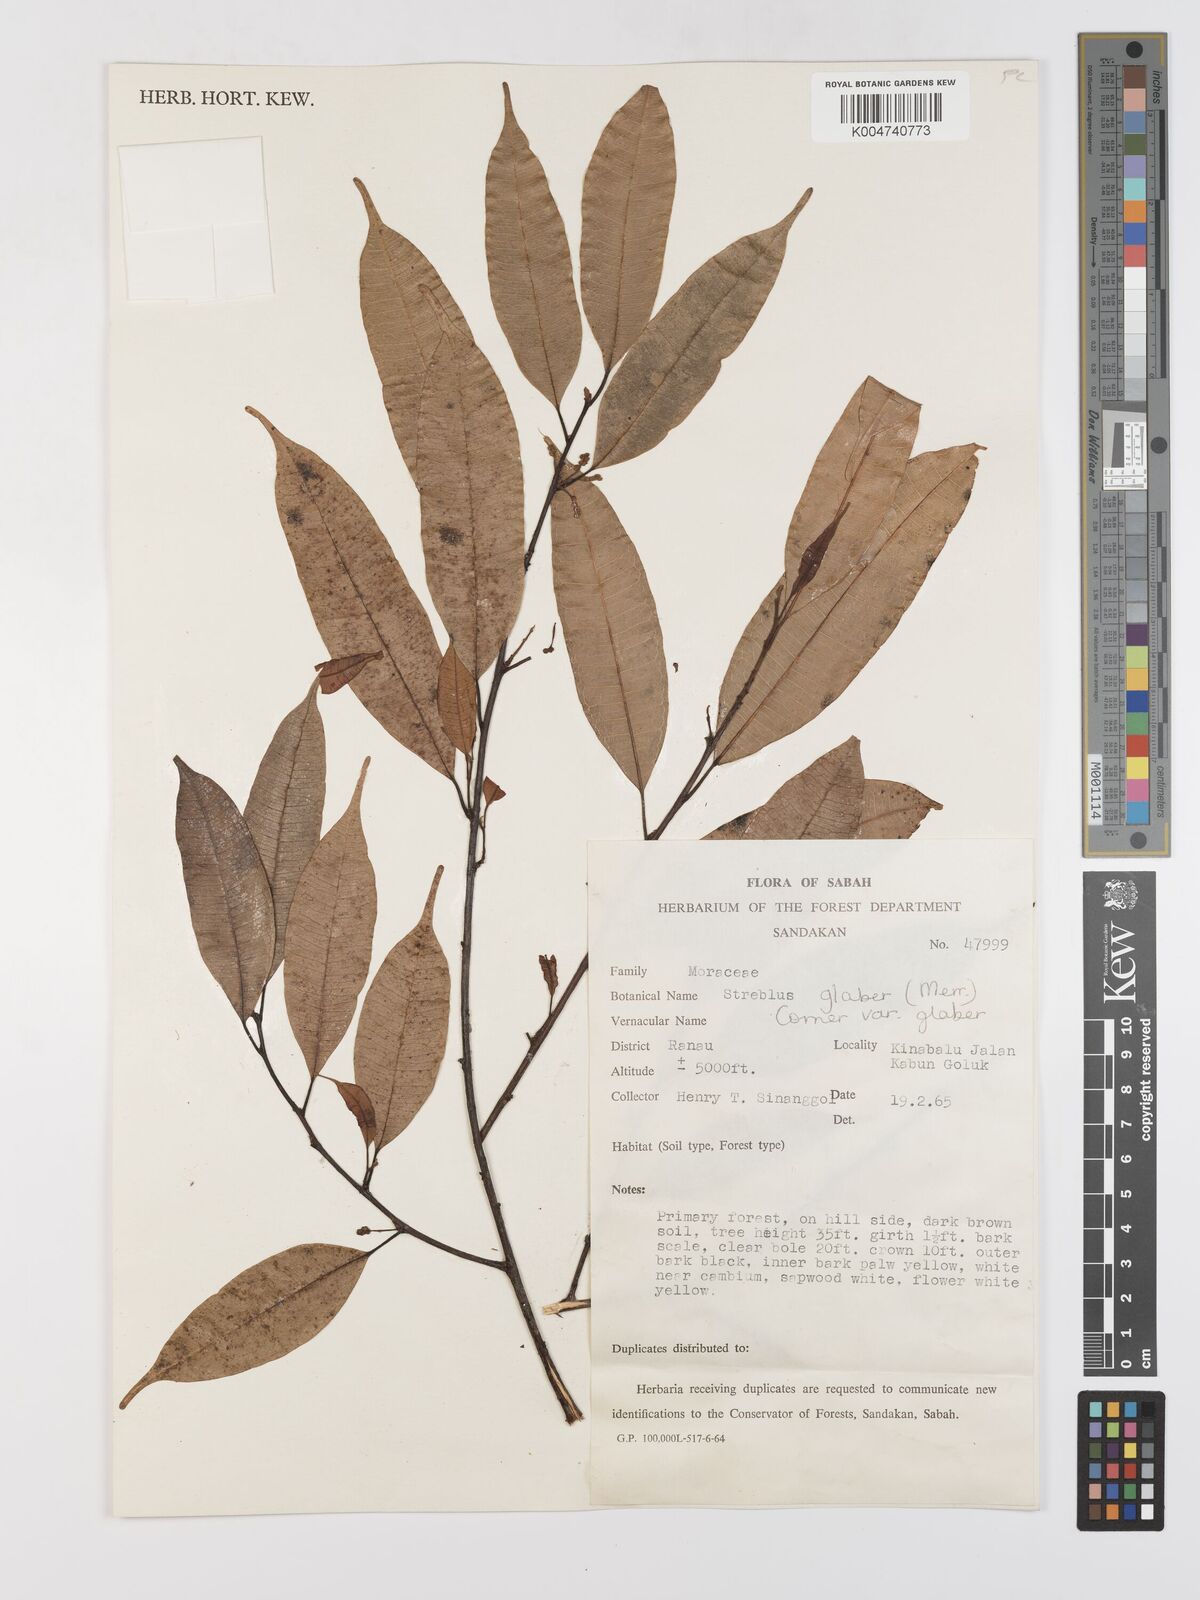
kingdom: Plantae
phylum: Tracheophyta
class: Magnoliopsida
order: Rosales
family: Moraceae
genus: Paratrophis
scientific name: Paratrophis glabra
